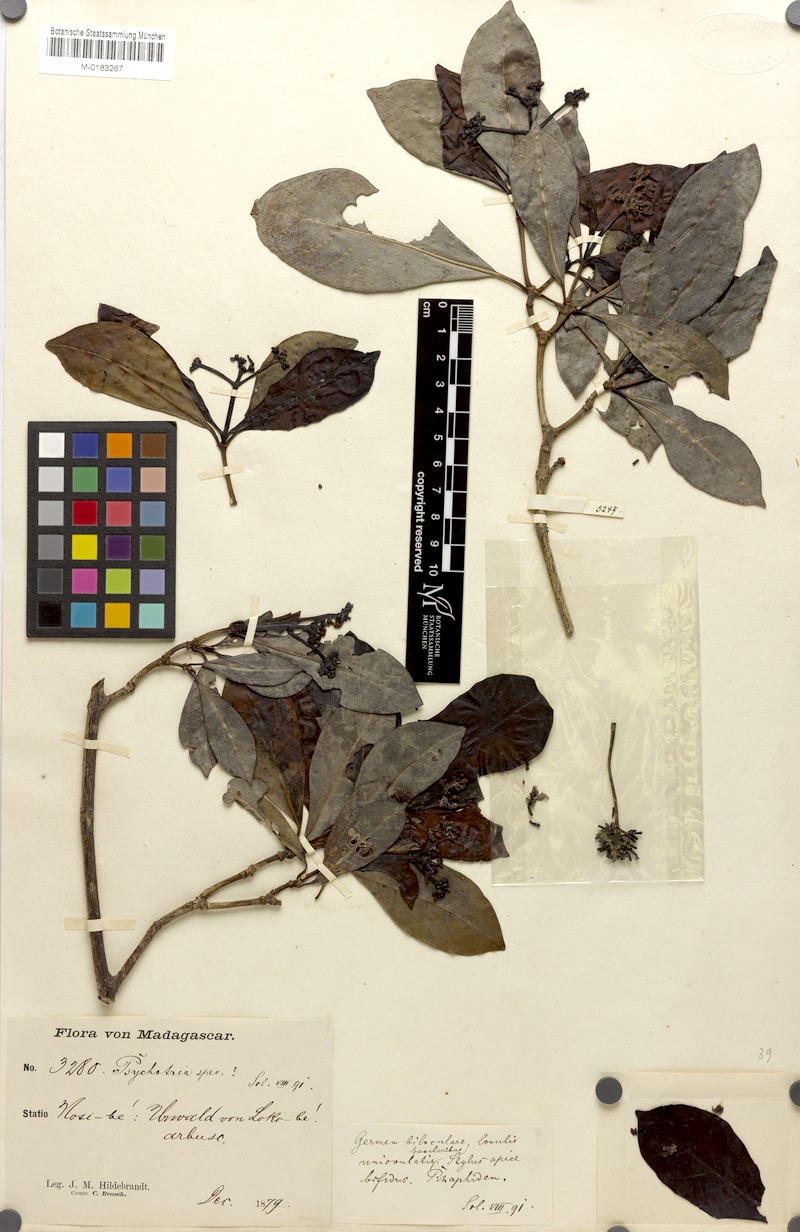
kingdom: Plantae
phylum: Tracheophyta
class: Magnoliopsida
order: Gentianales
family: Rubiaceae
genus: Psychotria
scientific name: Psychotria anderssoniana
